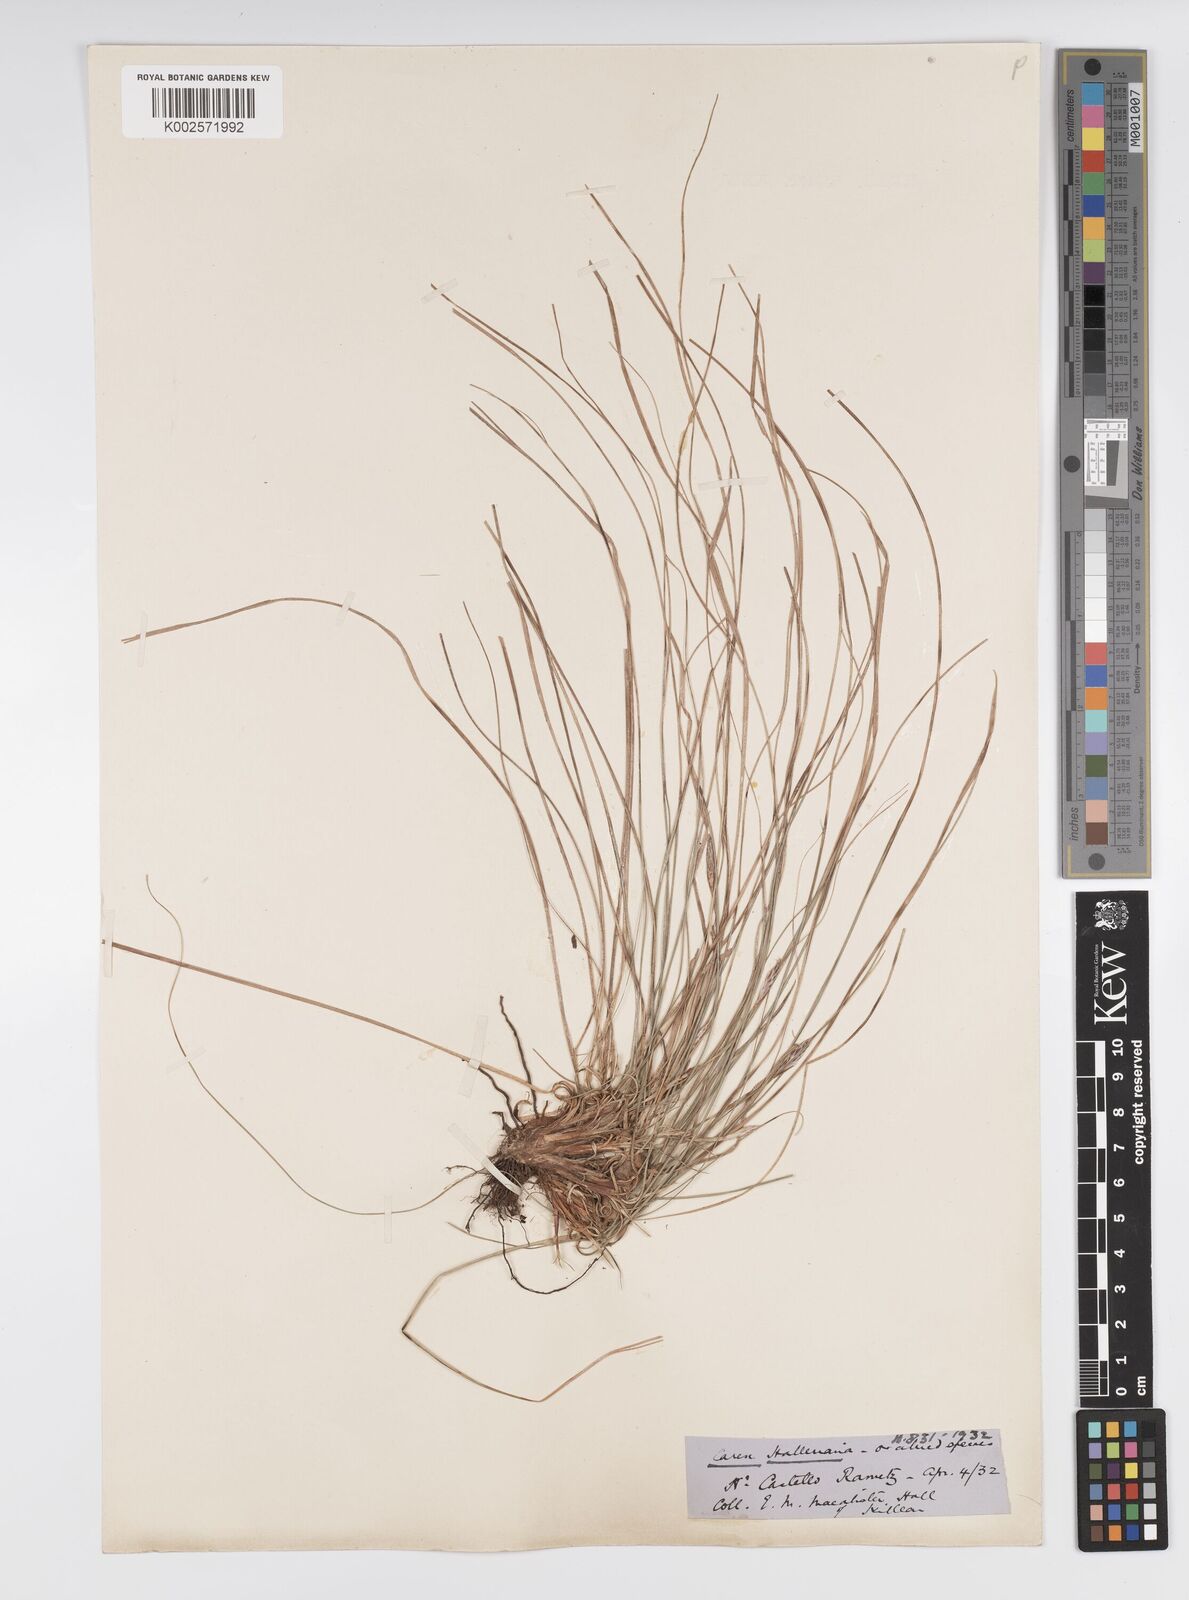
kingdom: Plantae
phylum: Tracheophyta
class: Liliopsida
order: Poales
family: Cyperaceae
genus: Carex
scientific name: Carex halleriana
